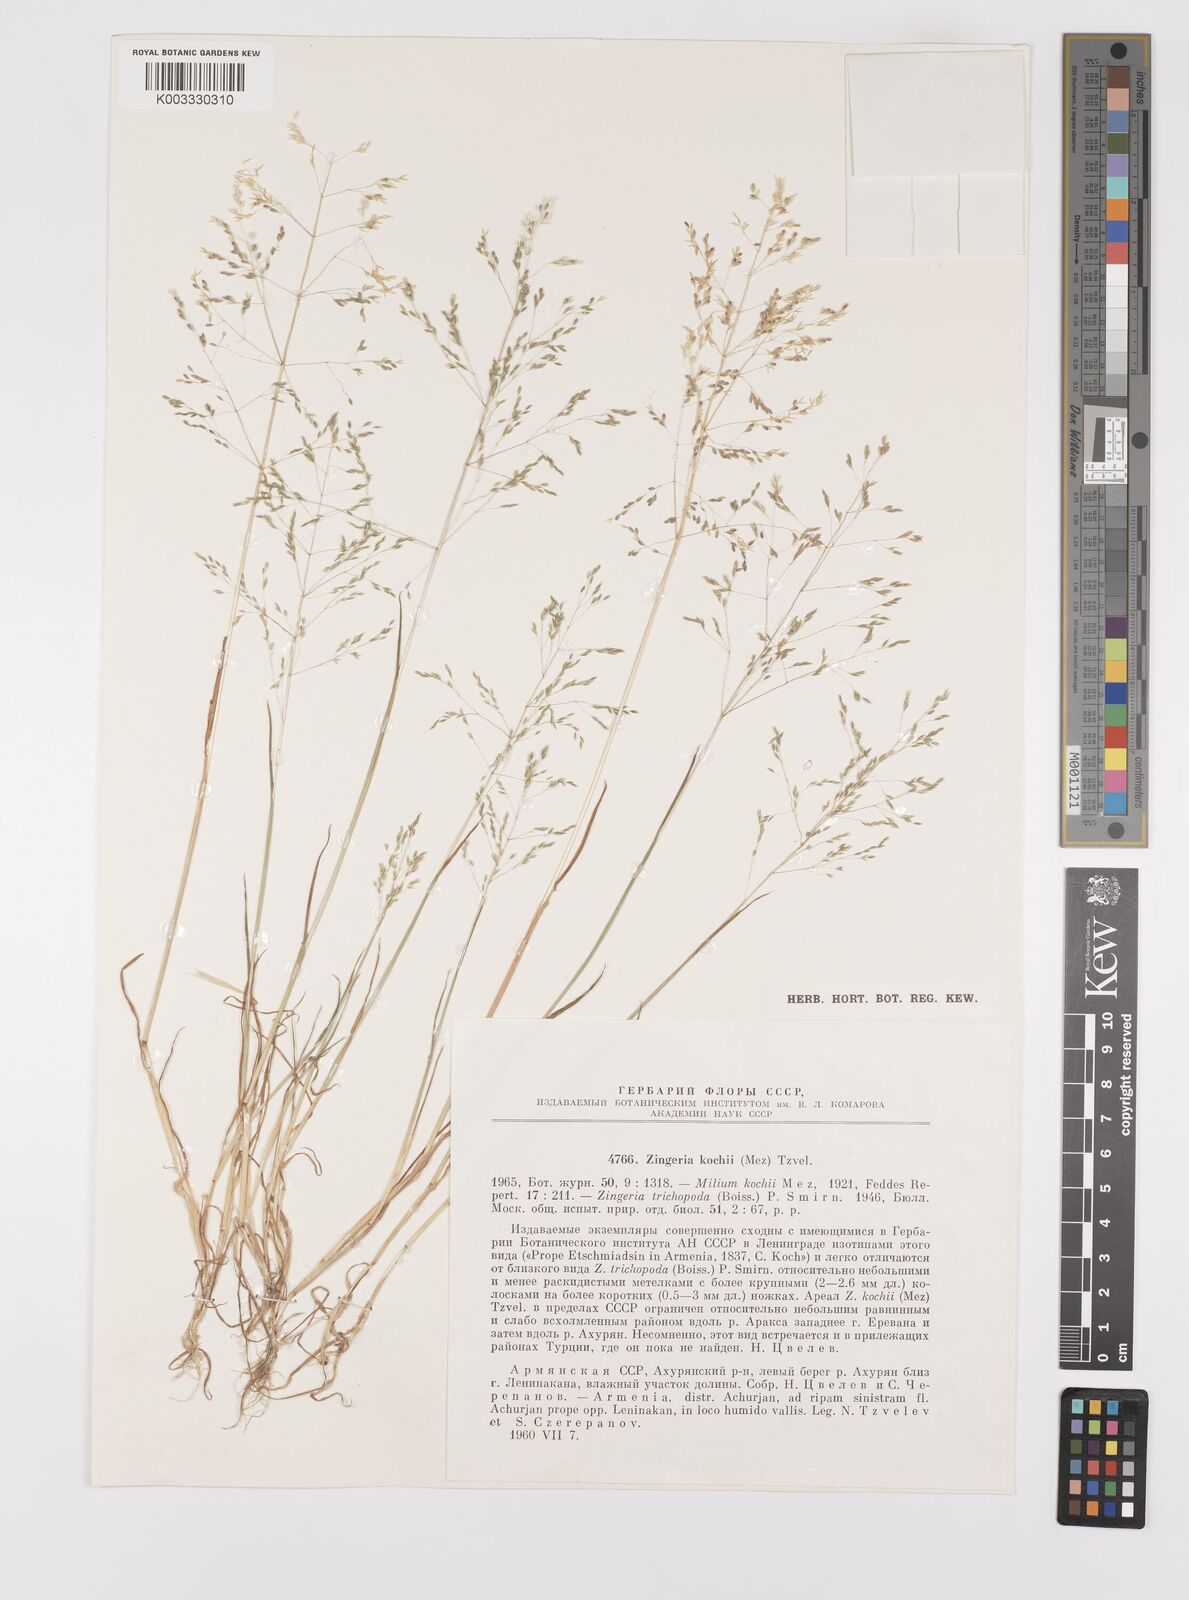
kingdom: Plantae
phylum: Tracheophyta
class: Liliopsida
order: Poales
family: Poaceae
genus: Colpodium
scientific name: Colpodium kochii
